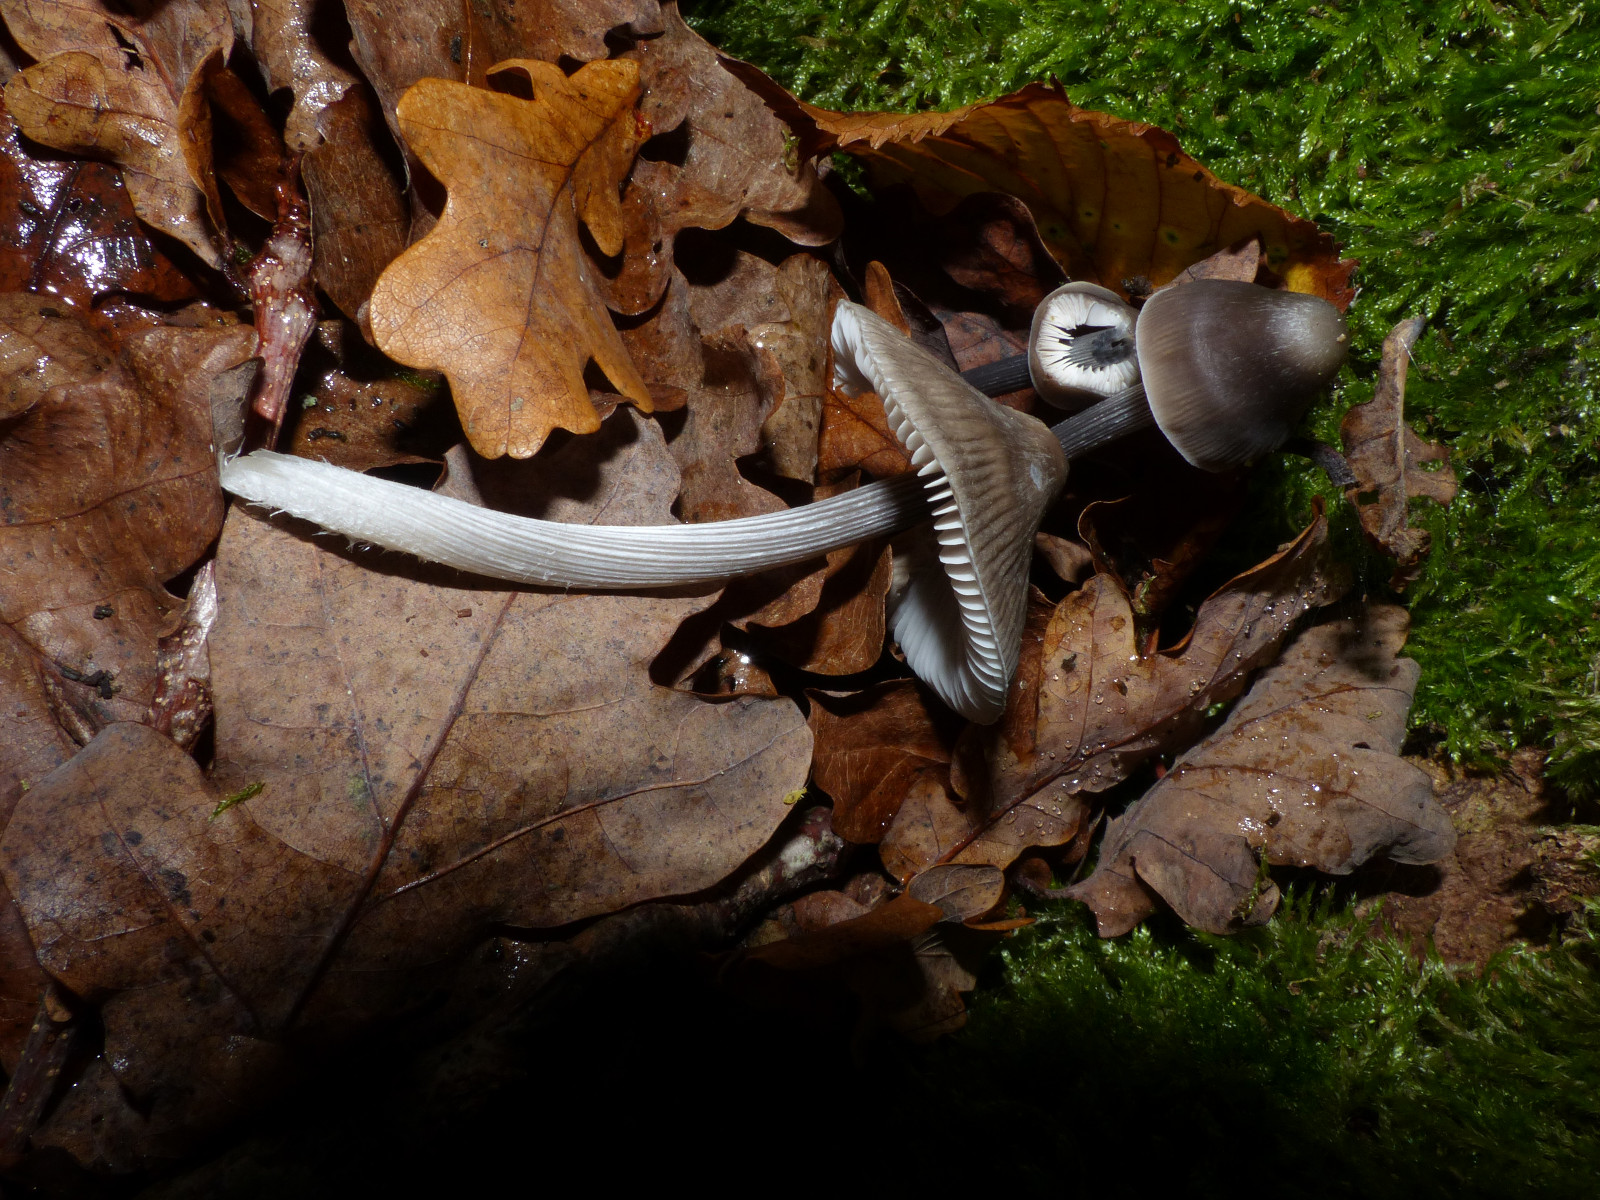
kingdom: Fungi
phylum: Basidiomycota
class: Agaricomycetes
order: Agaricales
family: Mycenaceae
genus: Mycena
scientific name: Mycena polygramma
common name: mangestribet huesvamp
